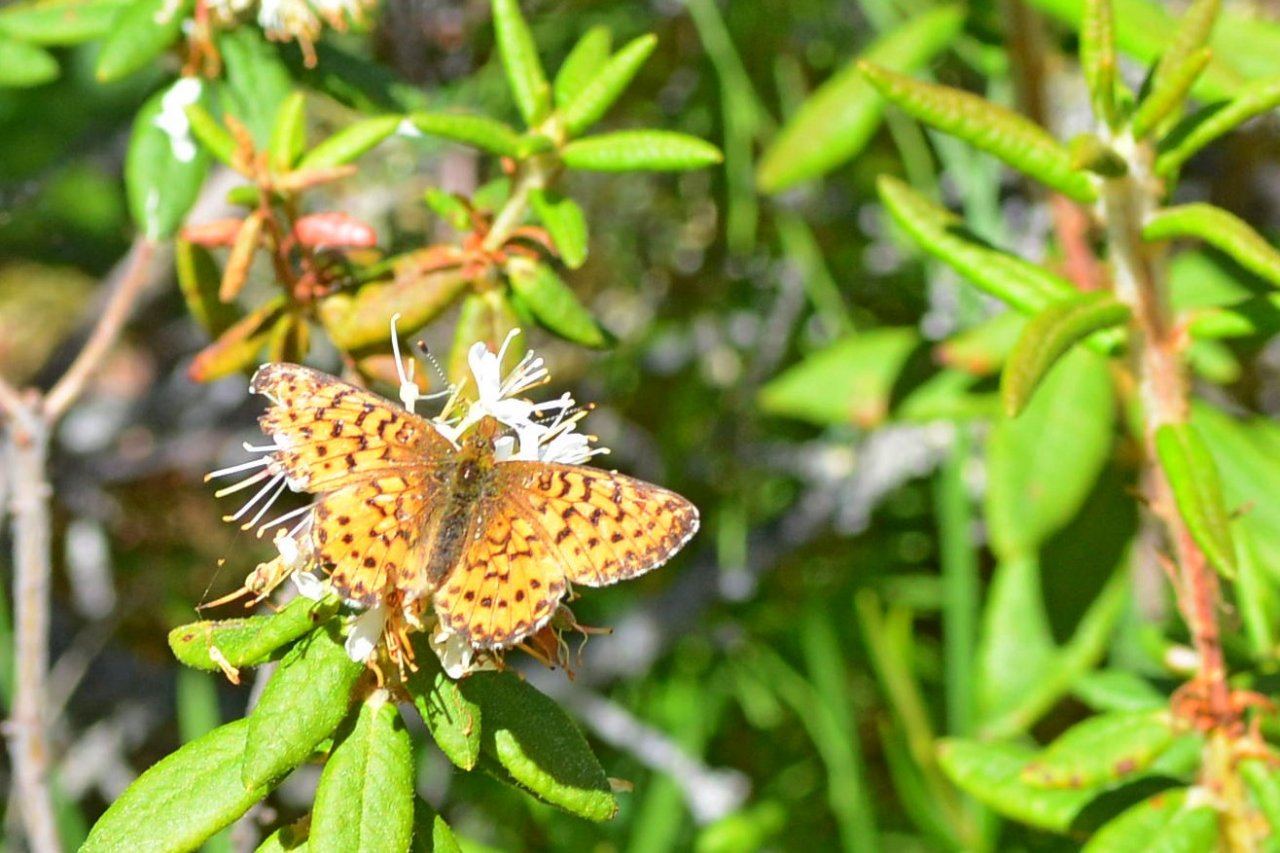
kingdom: Animalia
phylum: Arthropoda
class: Insecta
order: Lepidoptera
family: Nymphalidae
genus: Boloria
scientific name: Boloria chariclea
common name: Arctic Fritillary
